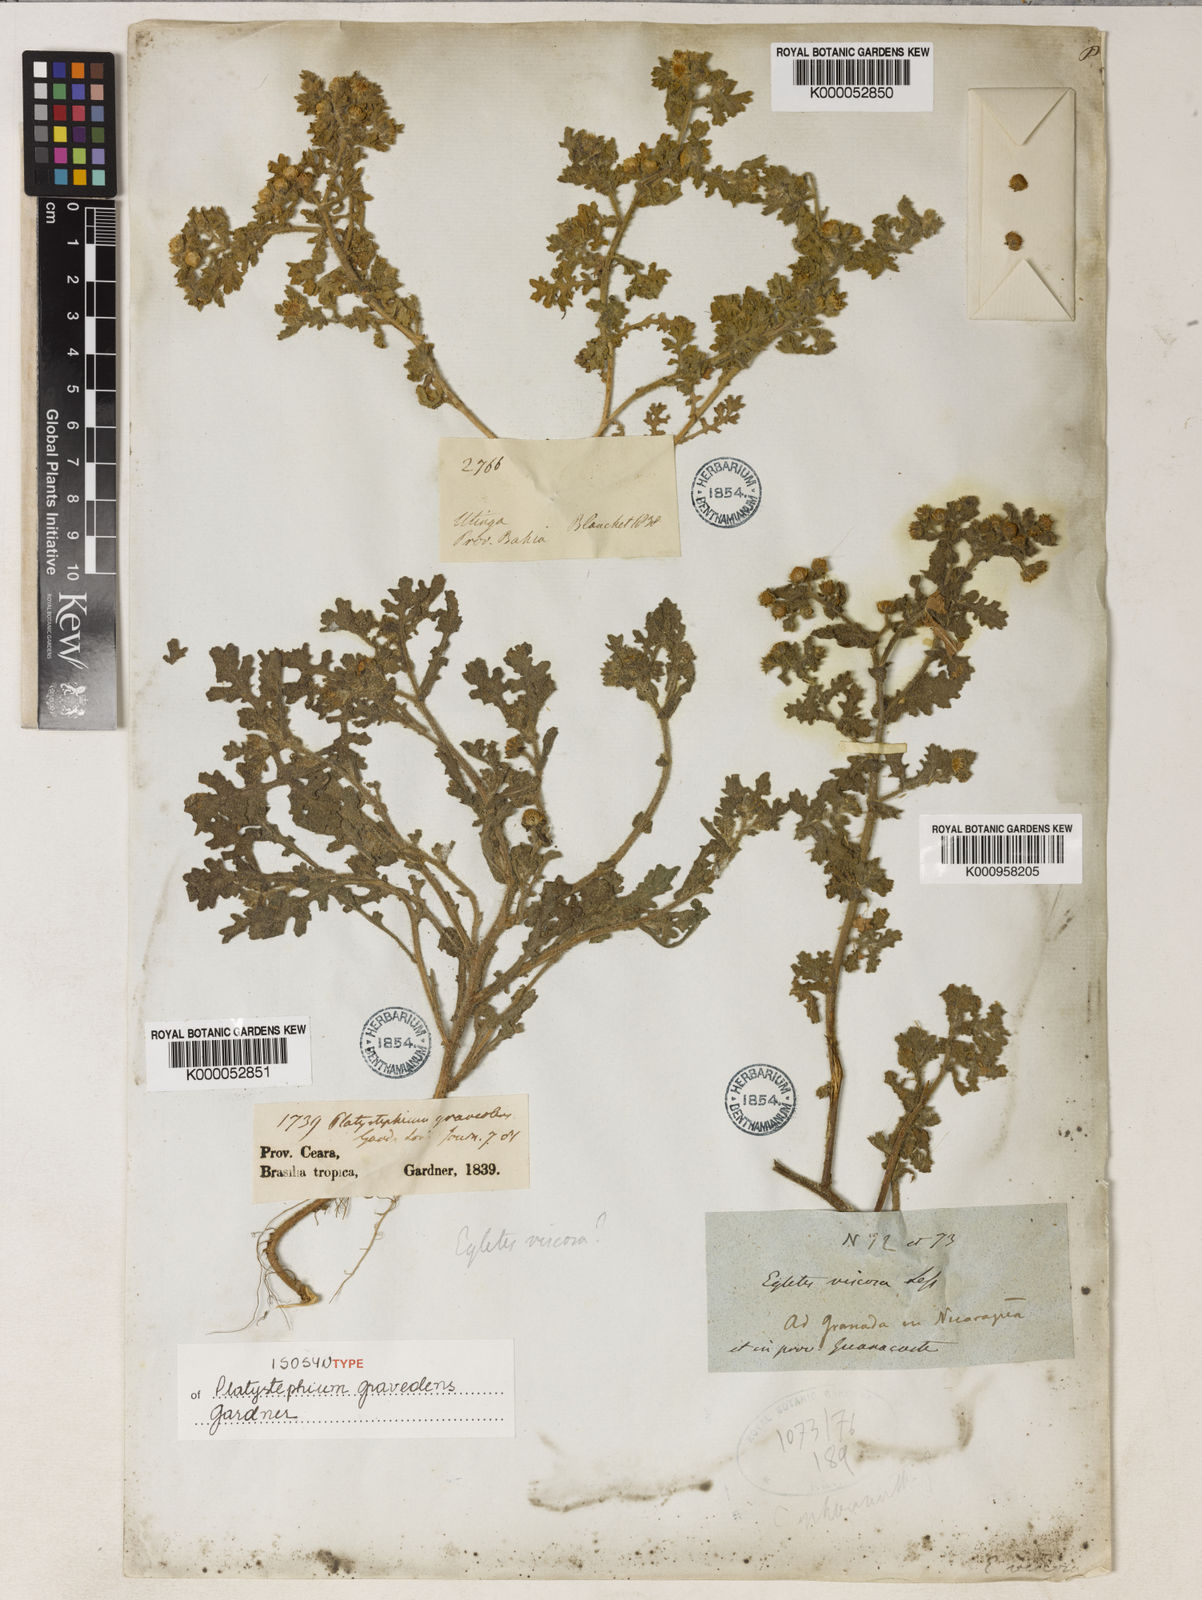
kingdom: Plantae
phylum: Tracheophyta
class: Magnoliopsida
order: Asterales
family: Asteraceae
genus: Egletes
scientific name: Egletes viscosa
